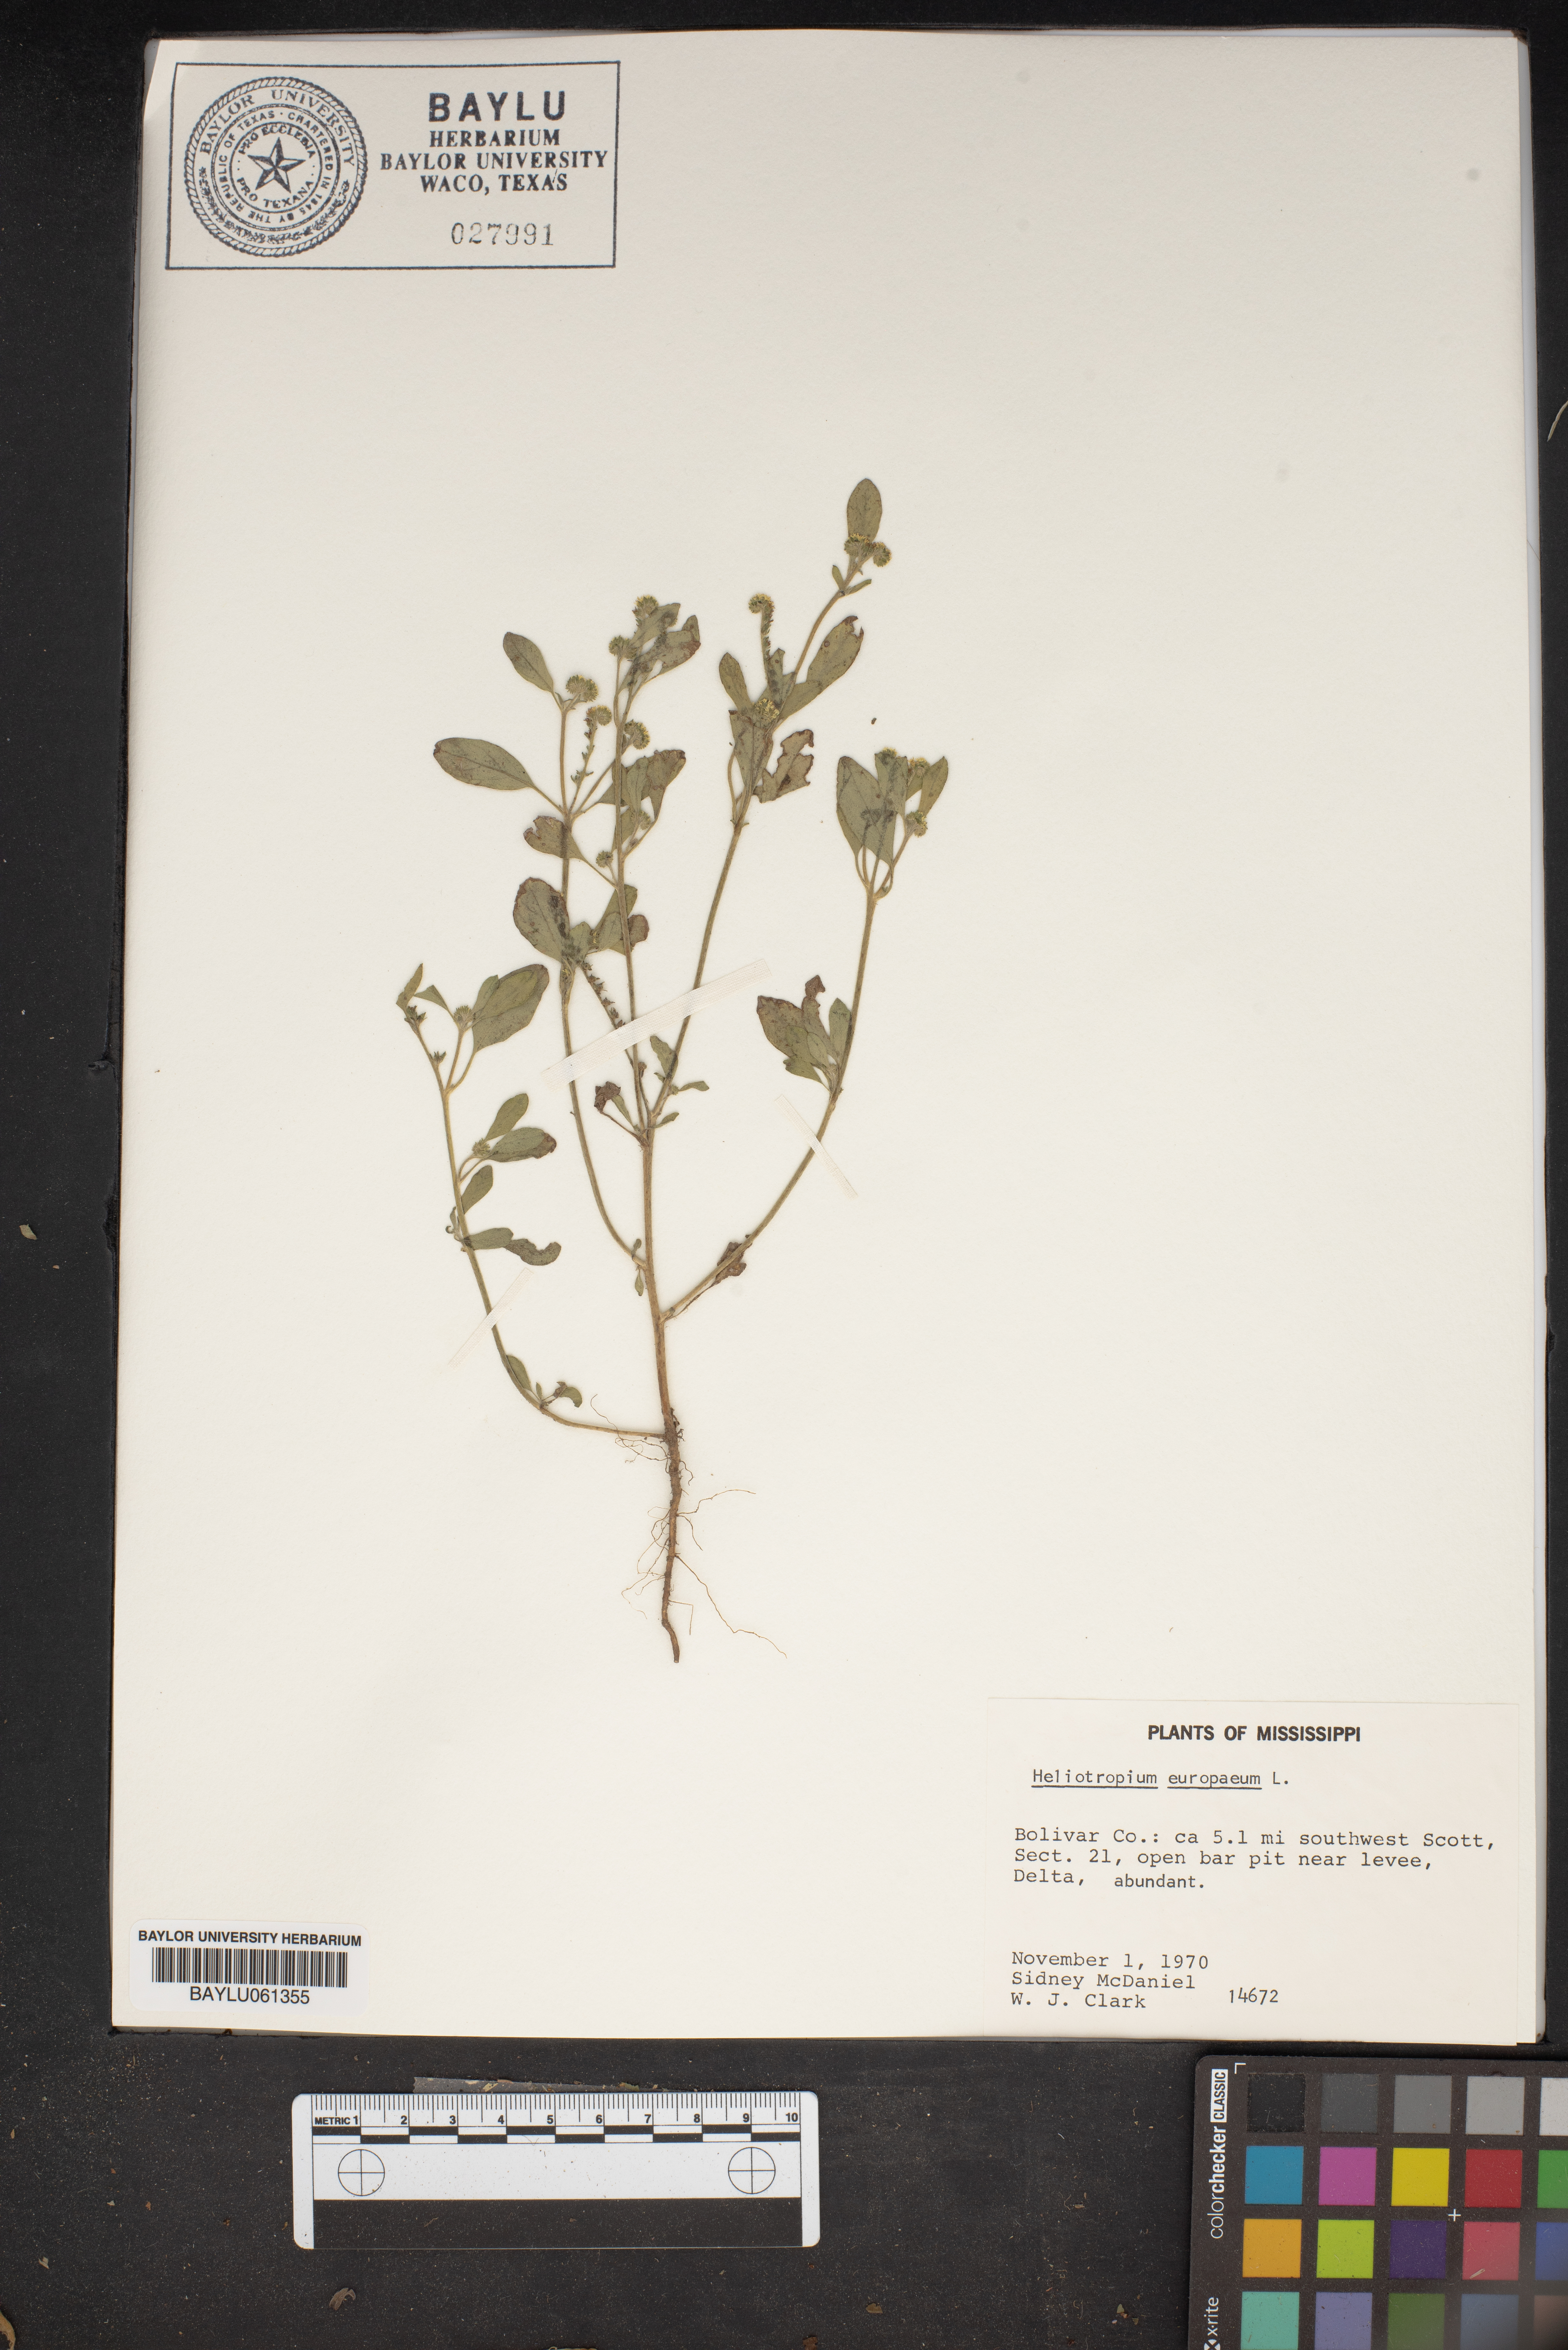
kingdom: Plantae
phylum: Tracheophyta
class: Magnoliopsida
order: Boraginales
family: Heliotropiaceae
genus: Heliotropium
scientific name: Heliotropium europaeum
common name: European heliotrope
